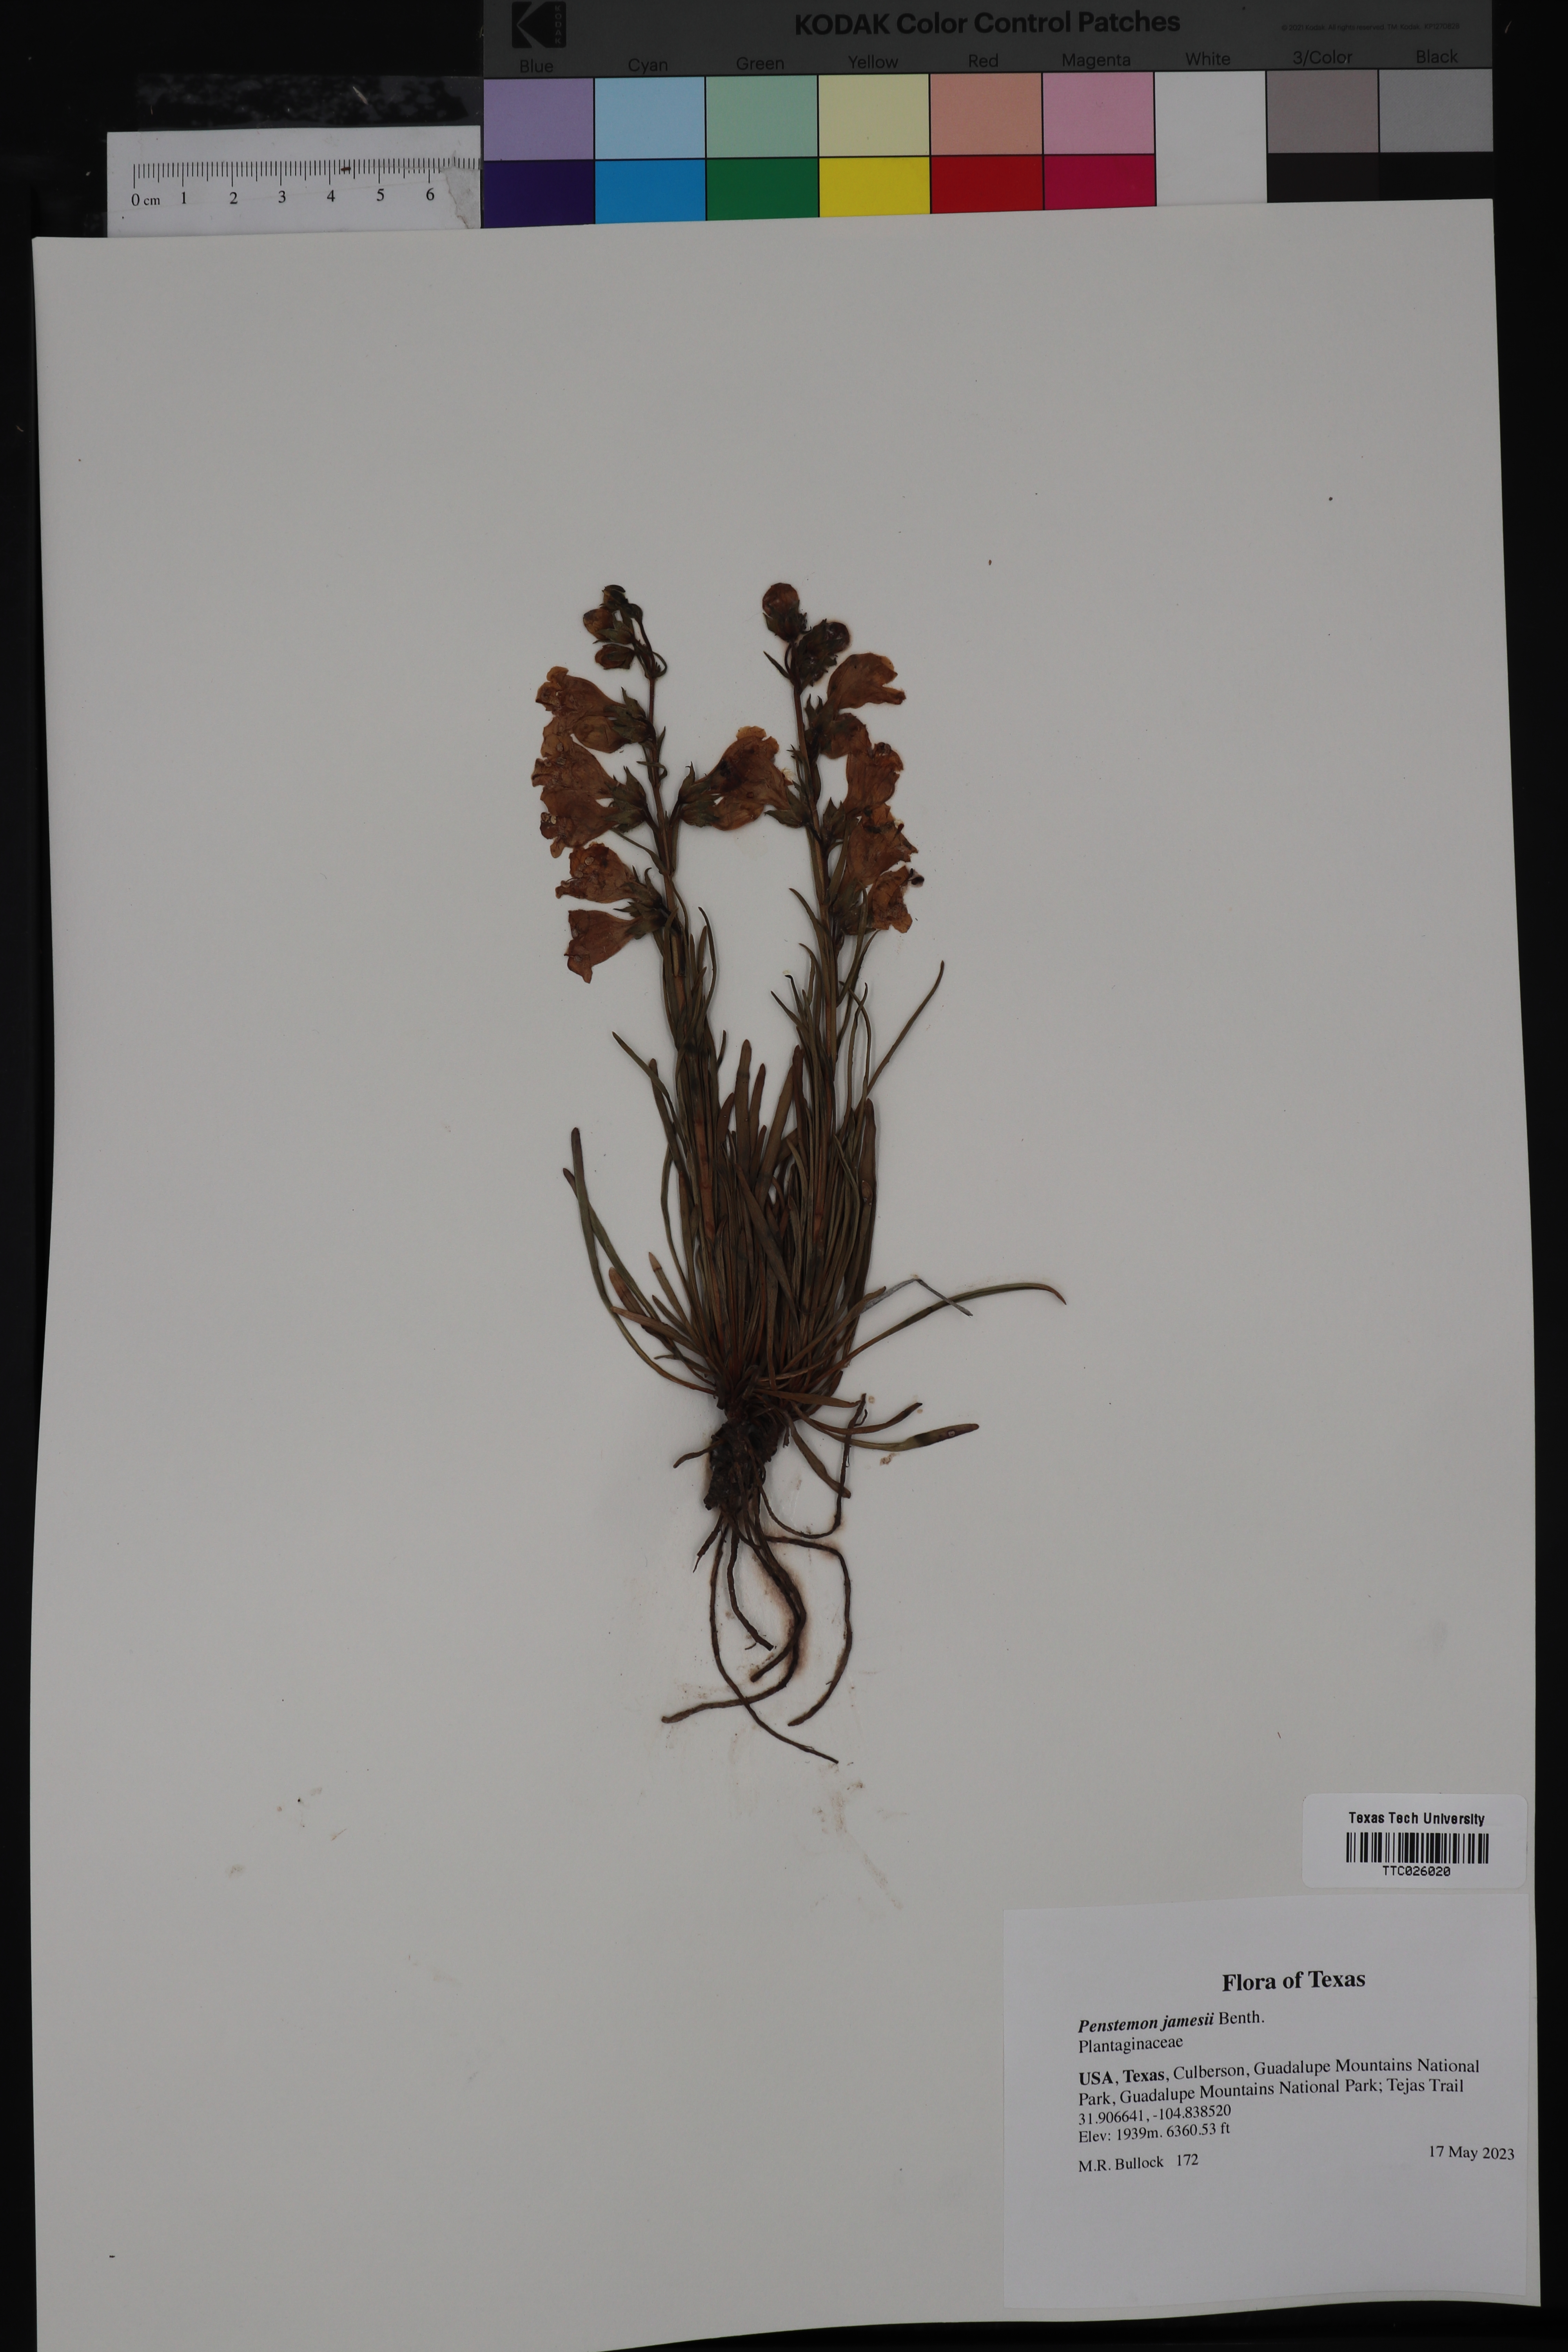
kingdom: Plantae
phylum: Tracheophyta
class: Magnoliopsida
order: Lamiales
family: Plantaginaceae
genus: Penstemon
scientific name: Penstemon jamesii
